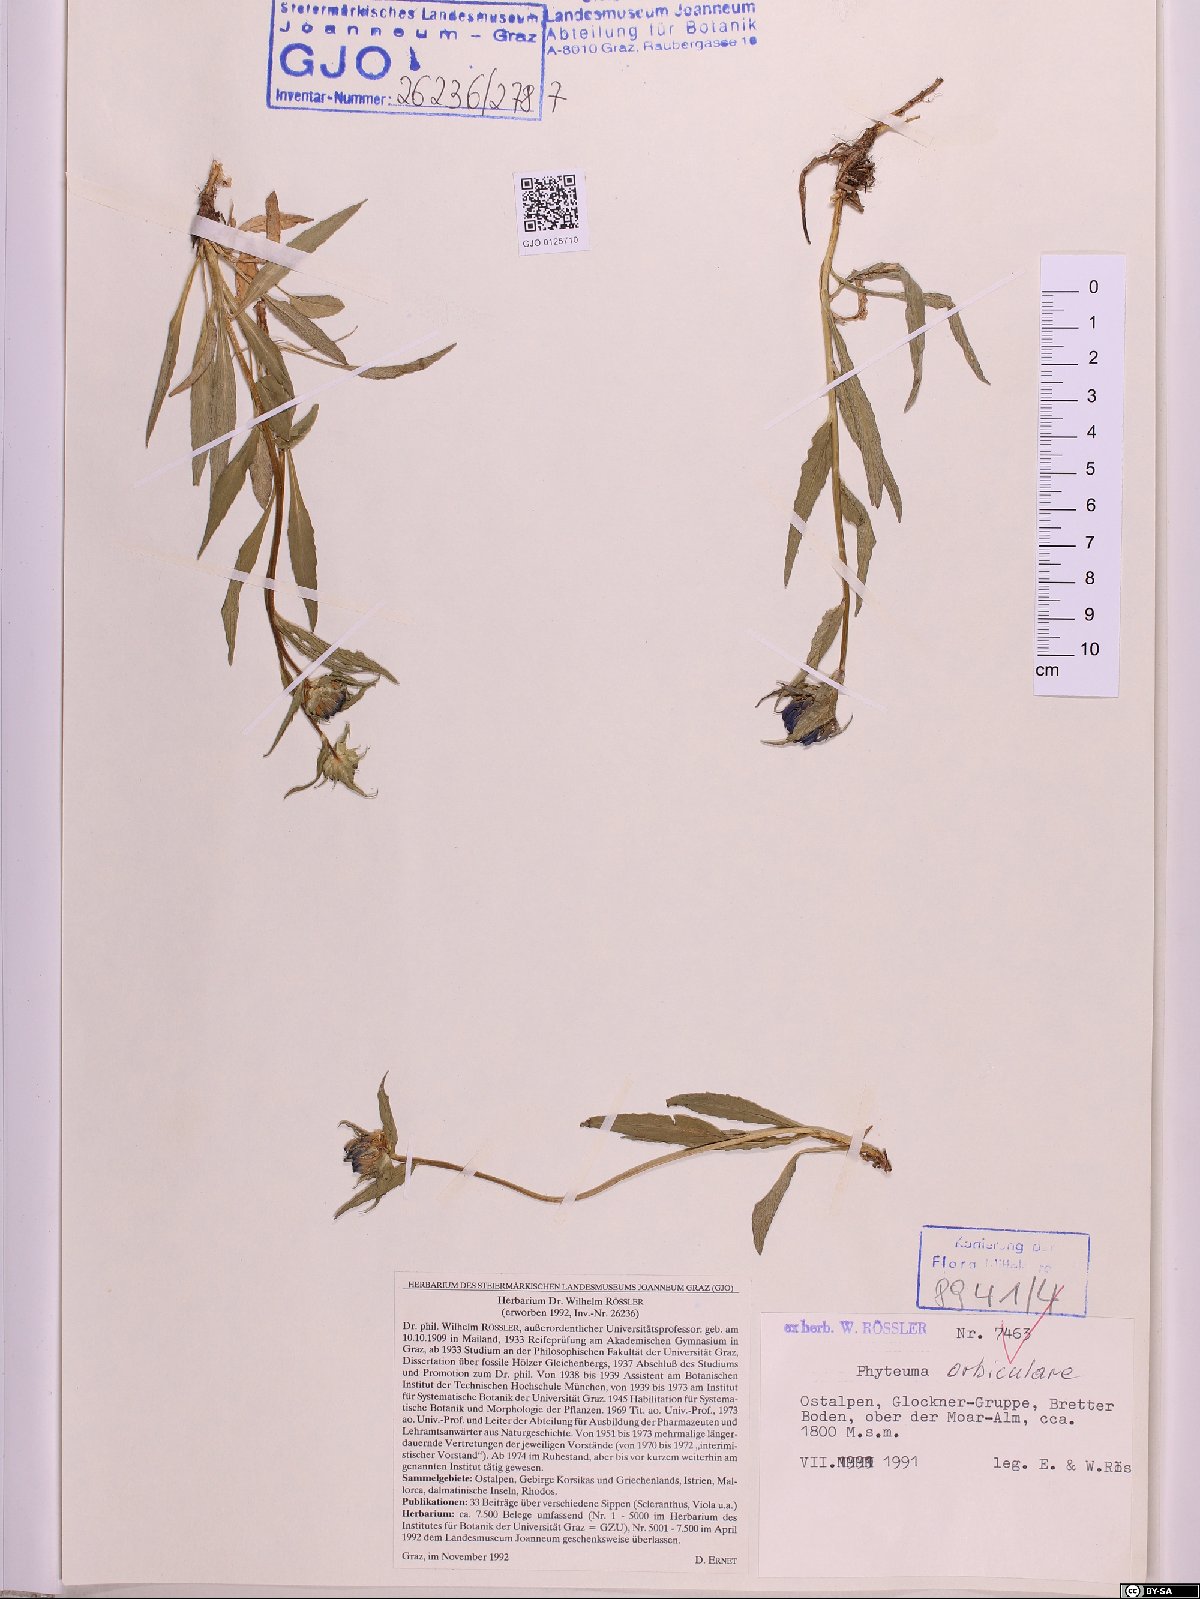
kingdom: Plantae
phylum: Tracheophyta
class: Magnoliopsida
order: Asterales
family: Campanulaceae
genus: Phyteuma
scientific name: Phyteuma orbiculare
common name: Round-headed rampion
